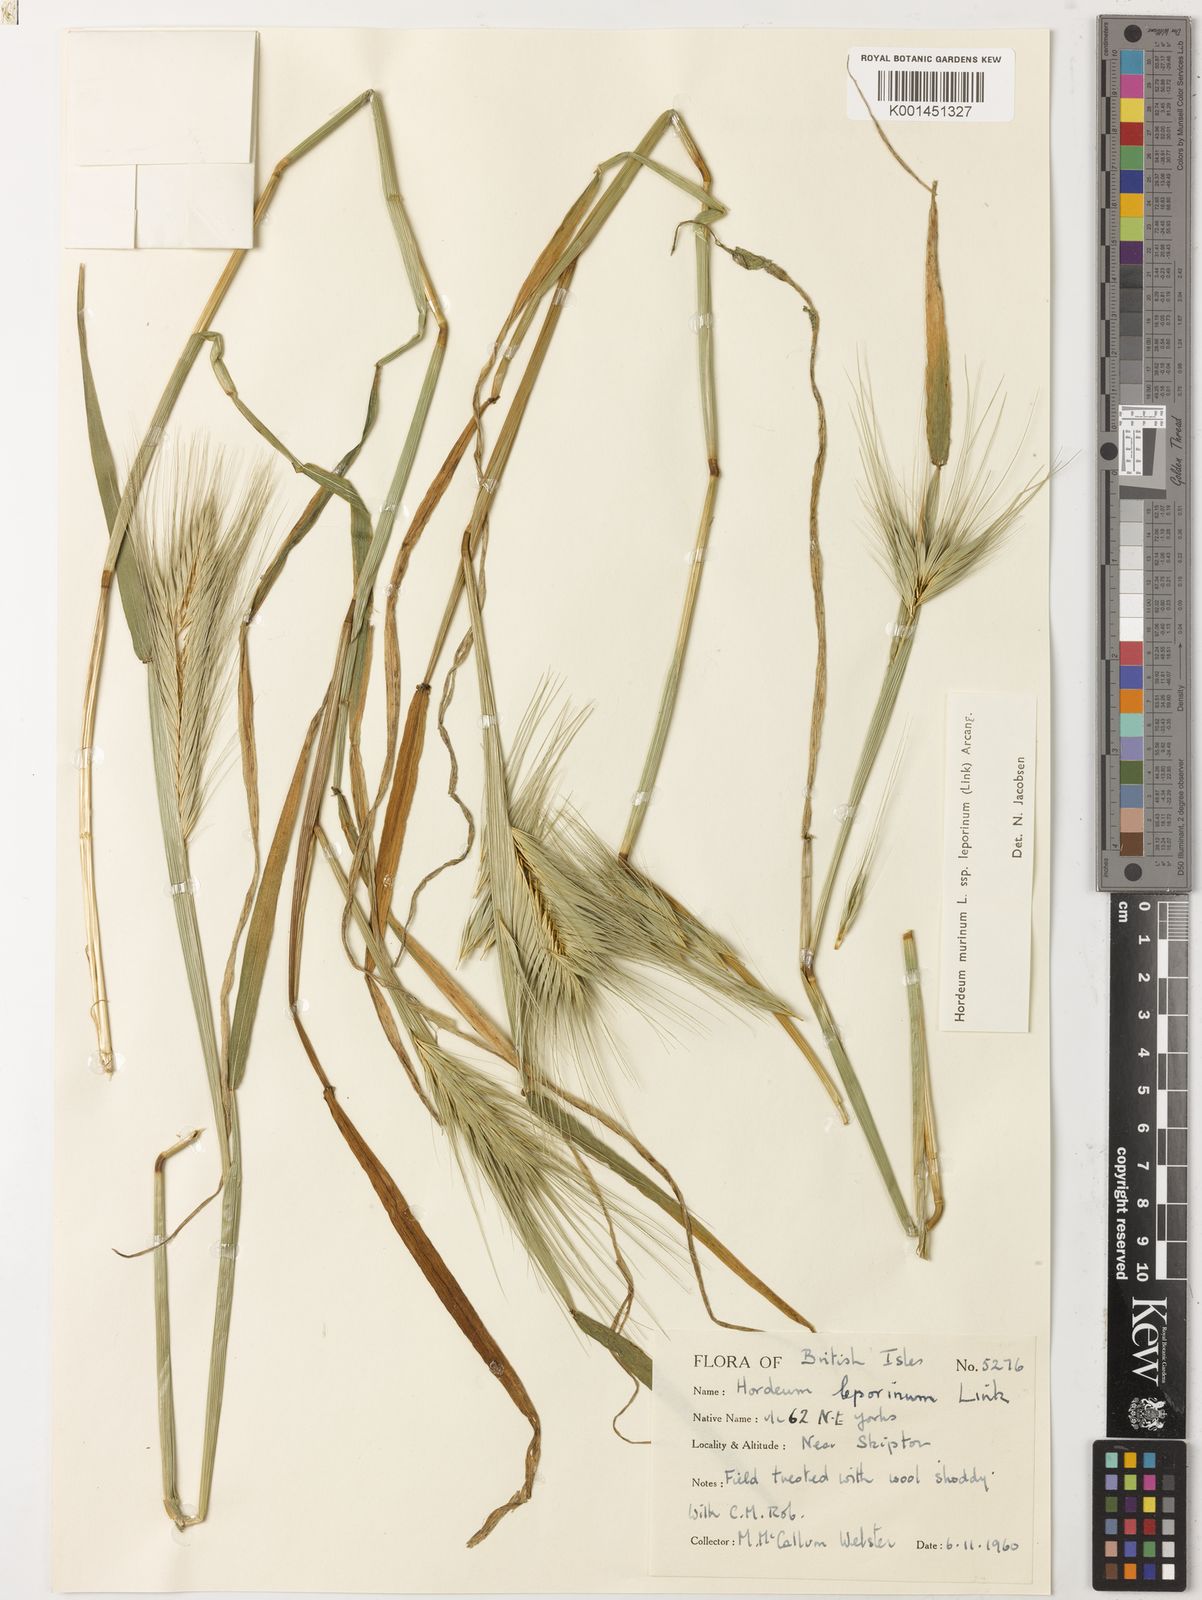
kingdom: Plantae
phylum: Tracheophyta
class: Liliopsida
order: Poales
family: Poaceae
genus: Hordeum
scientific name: Hordeum murinum
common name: Wall barley
